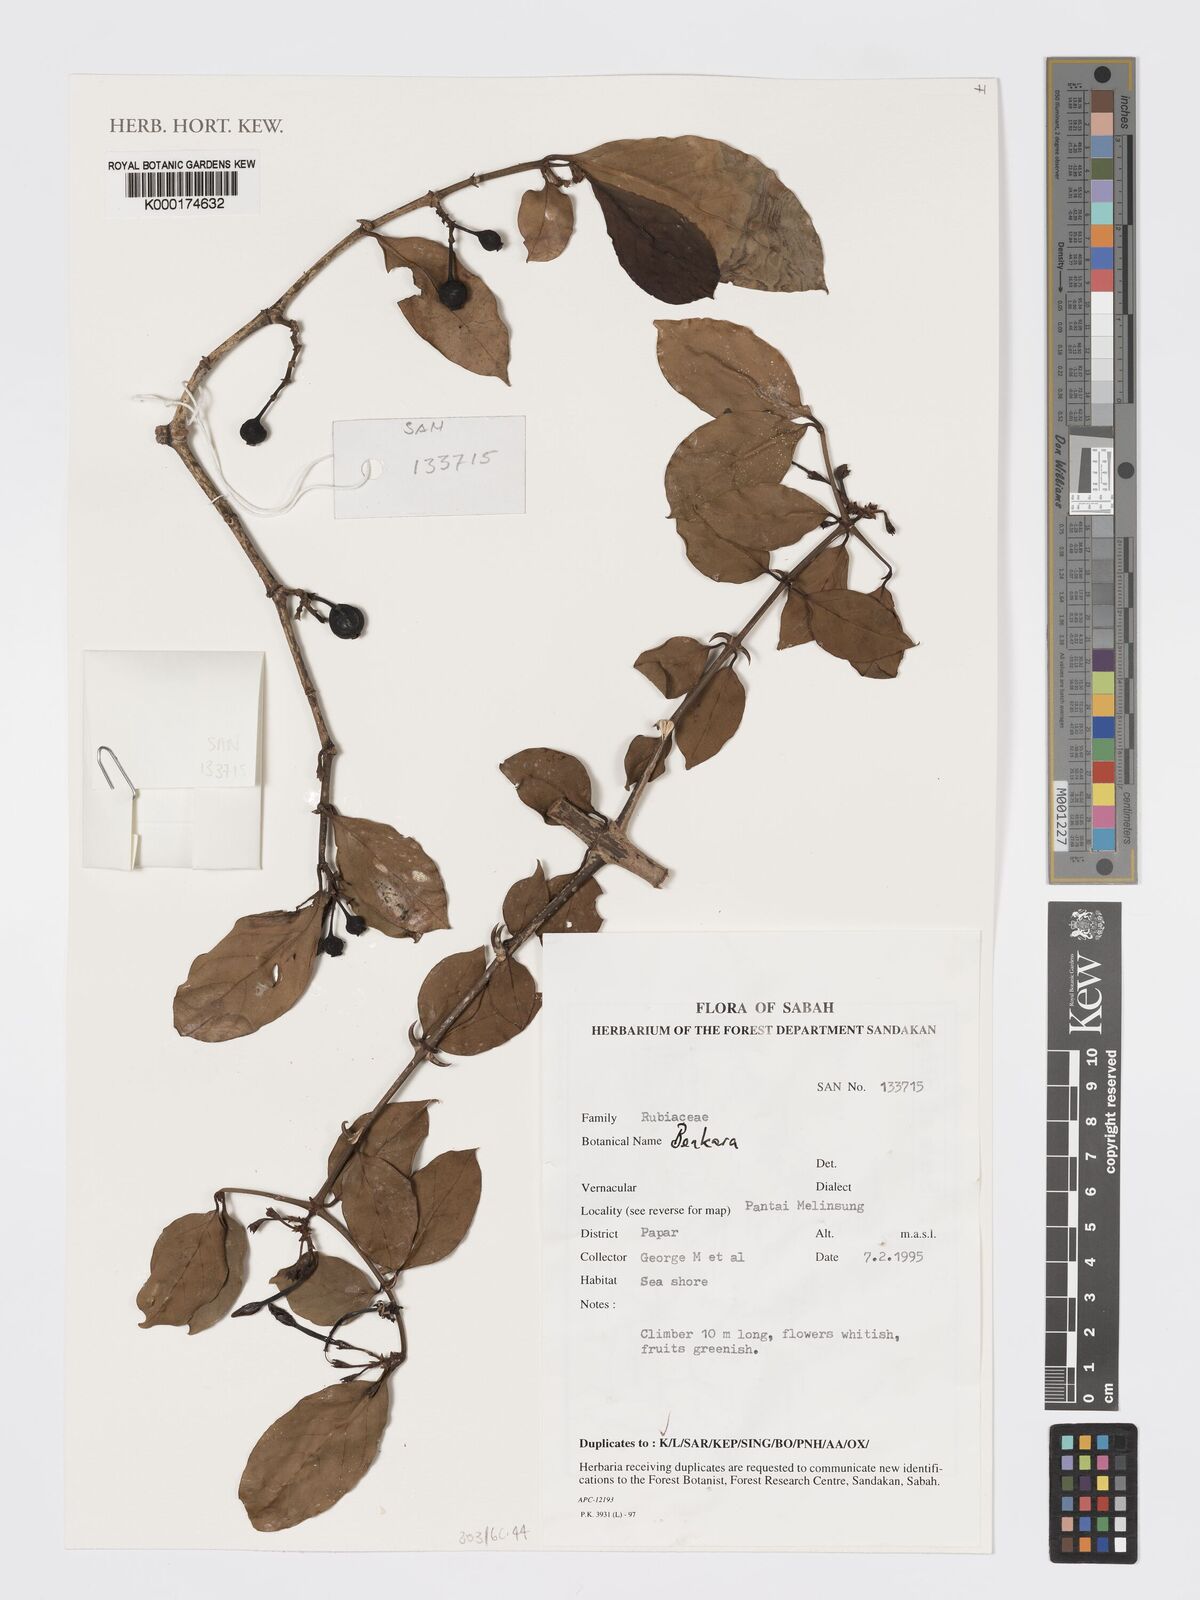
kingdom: Plantae
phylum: Tracheophyta
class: Magnoliopsida
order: Gentianales
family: Rubiaceae
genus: Benkara
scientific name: Benkara
